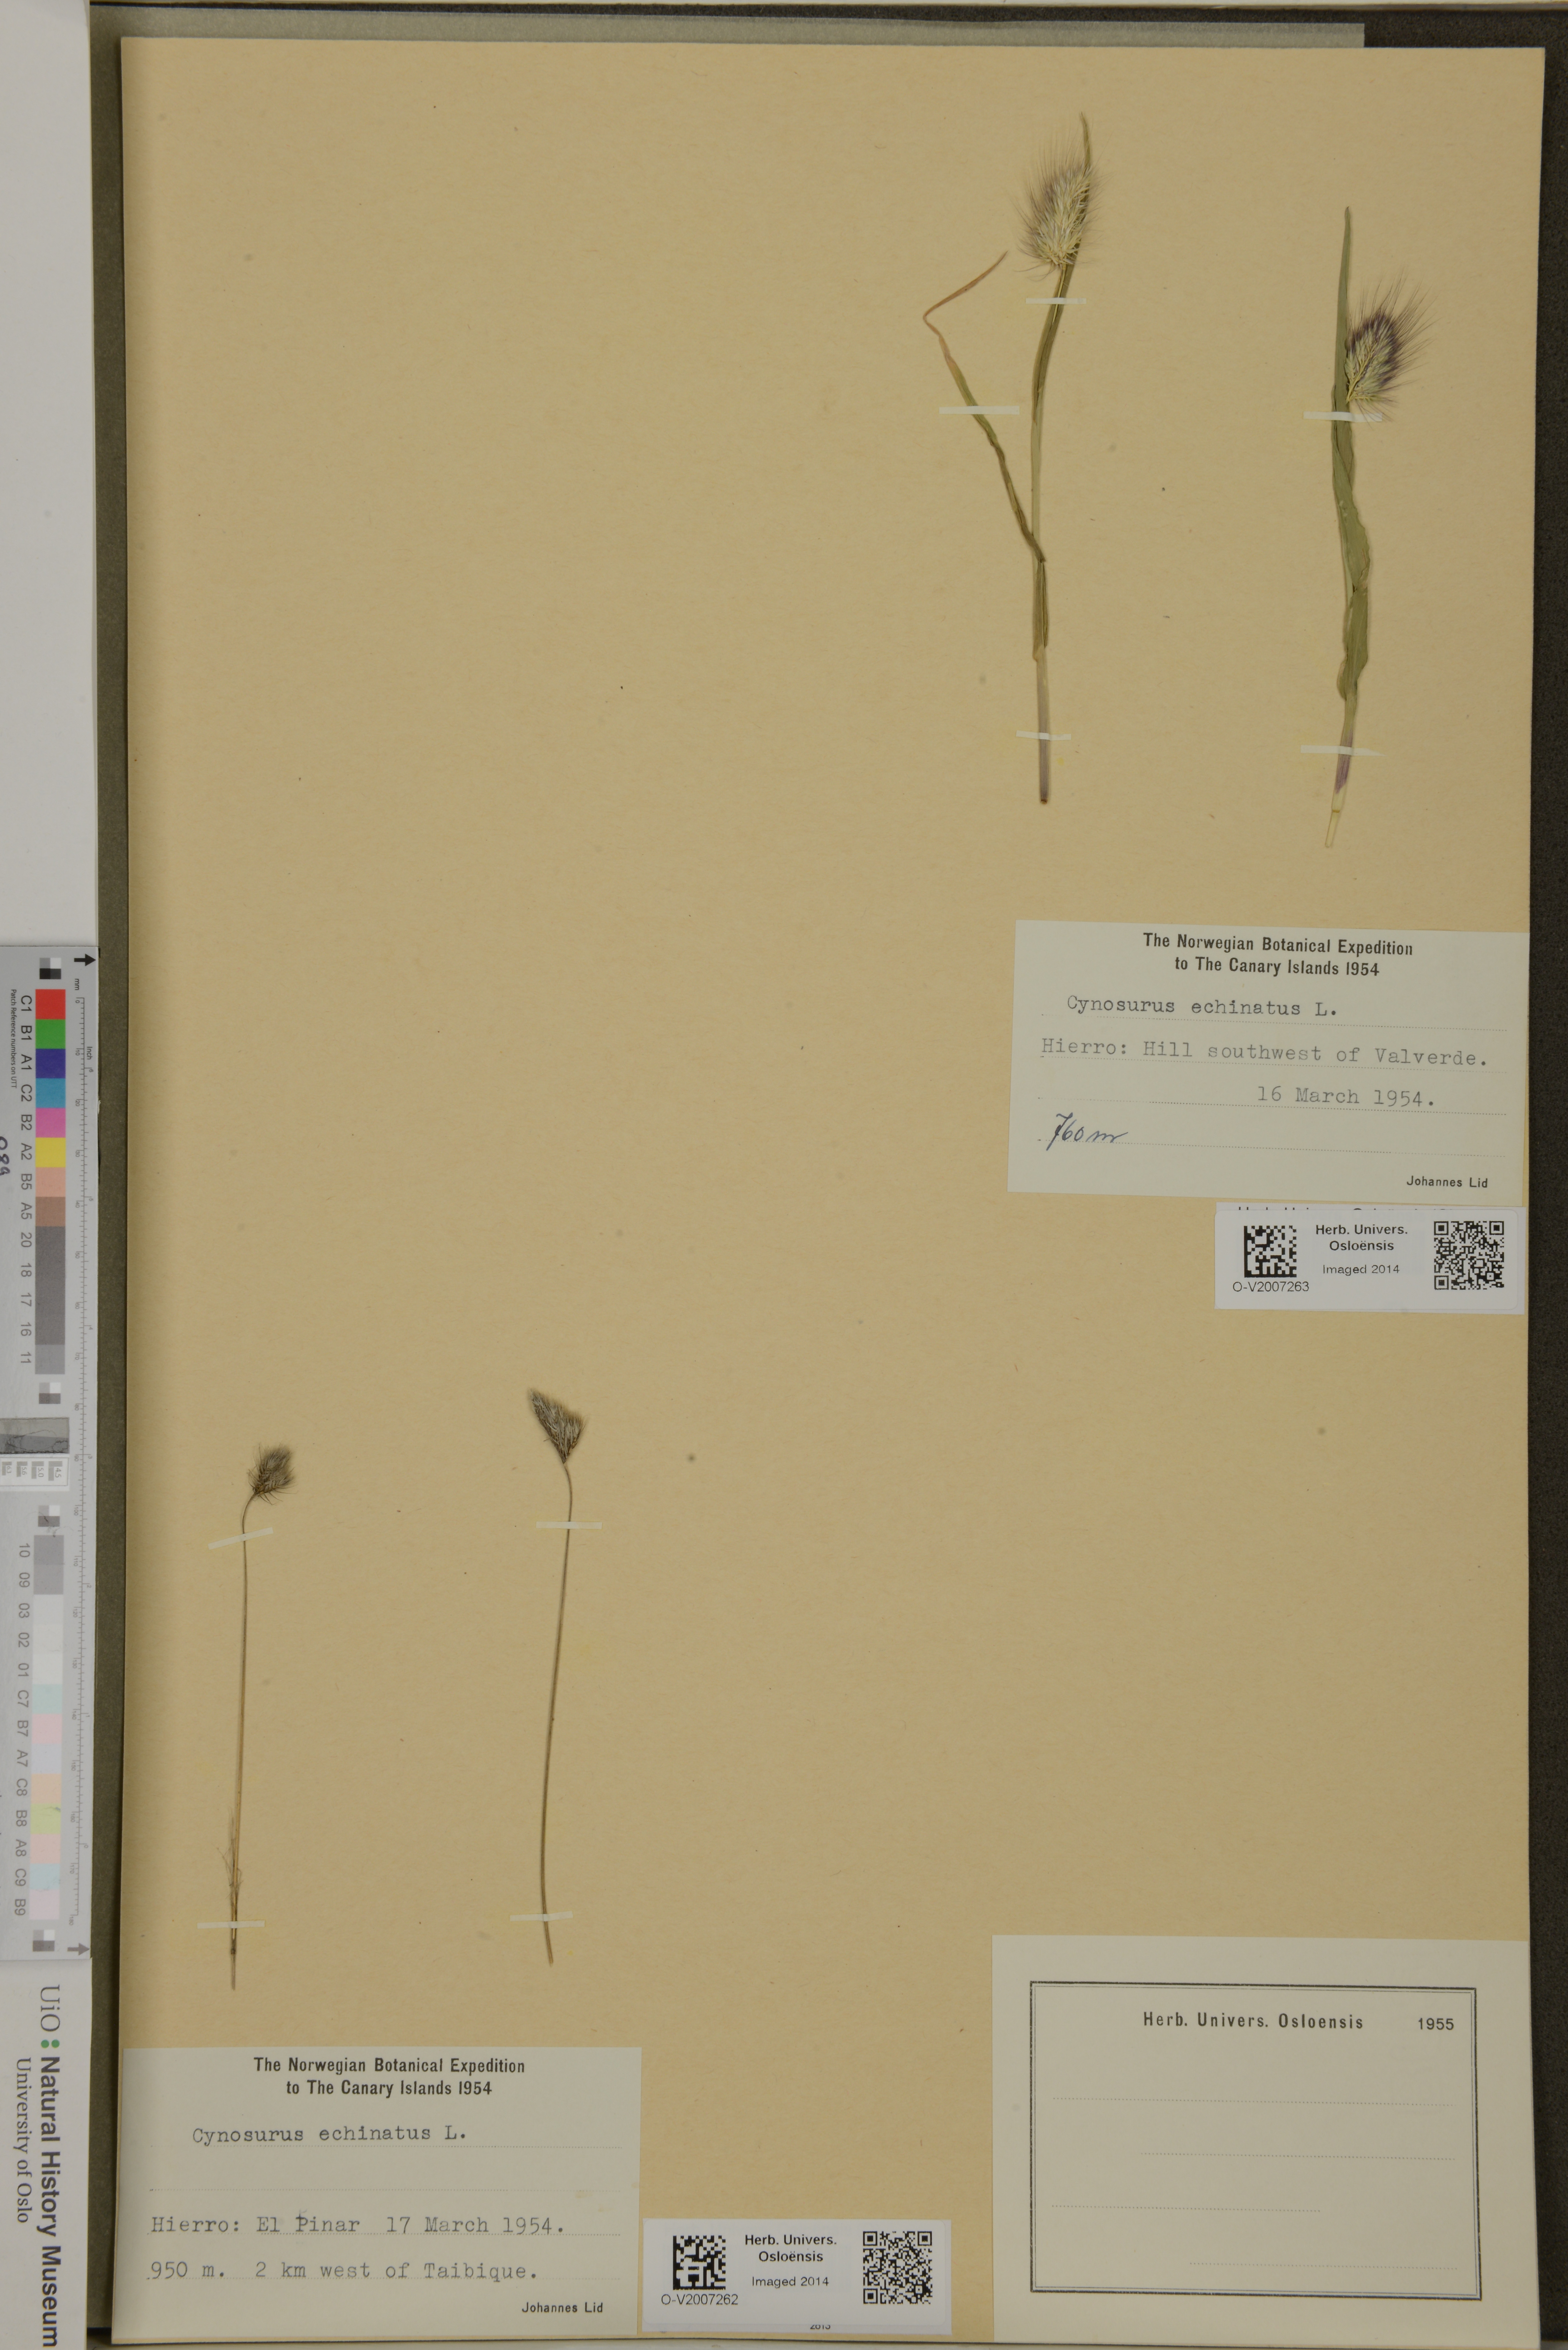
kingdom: Plantae
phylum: Tracheophyta
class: Liliopsida
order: Poales
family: Poaceae
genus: Cynosurus
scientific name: Cynosurus echinatus
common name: Rough dog's-tail
